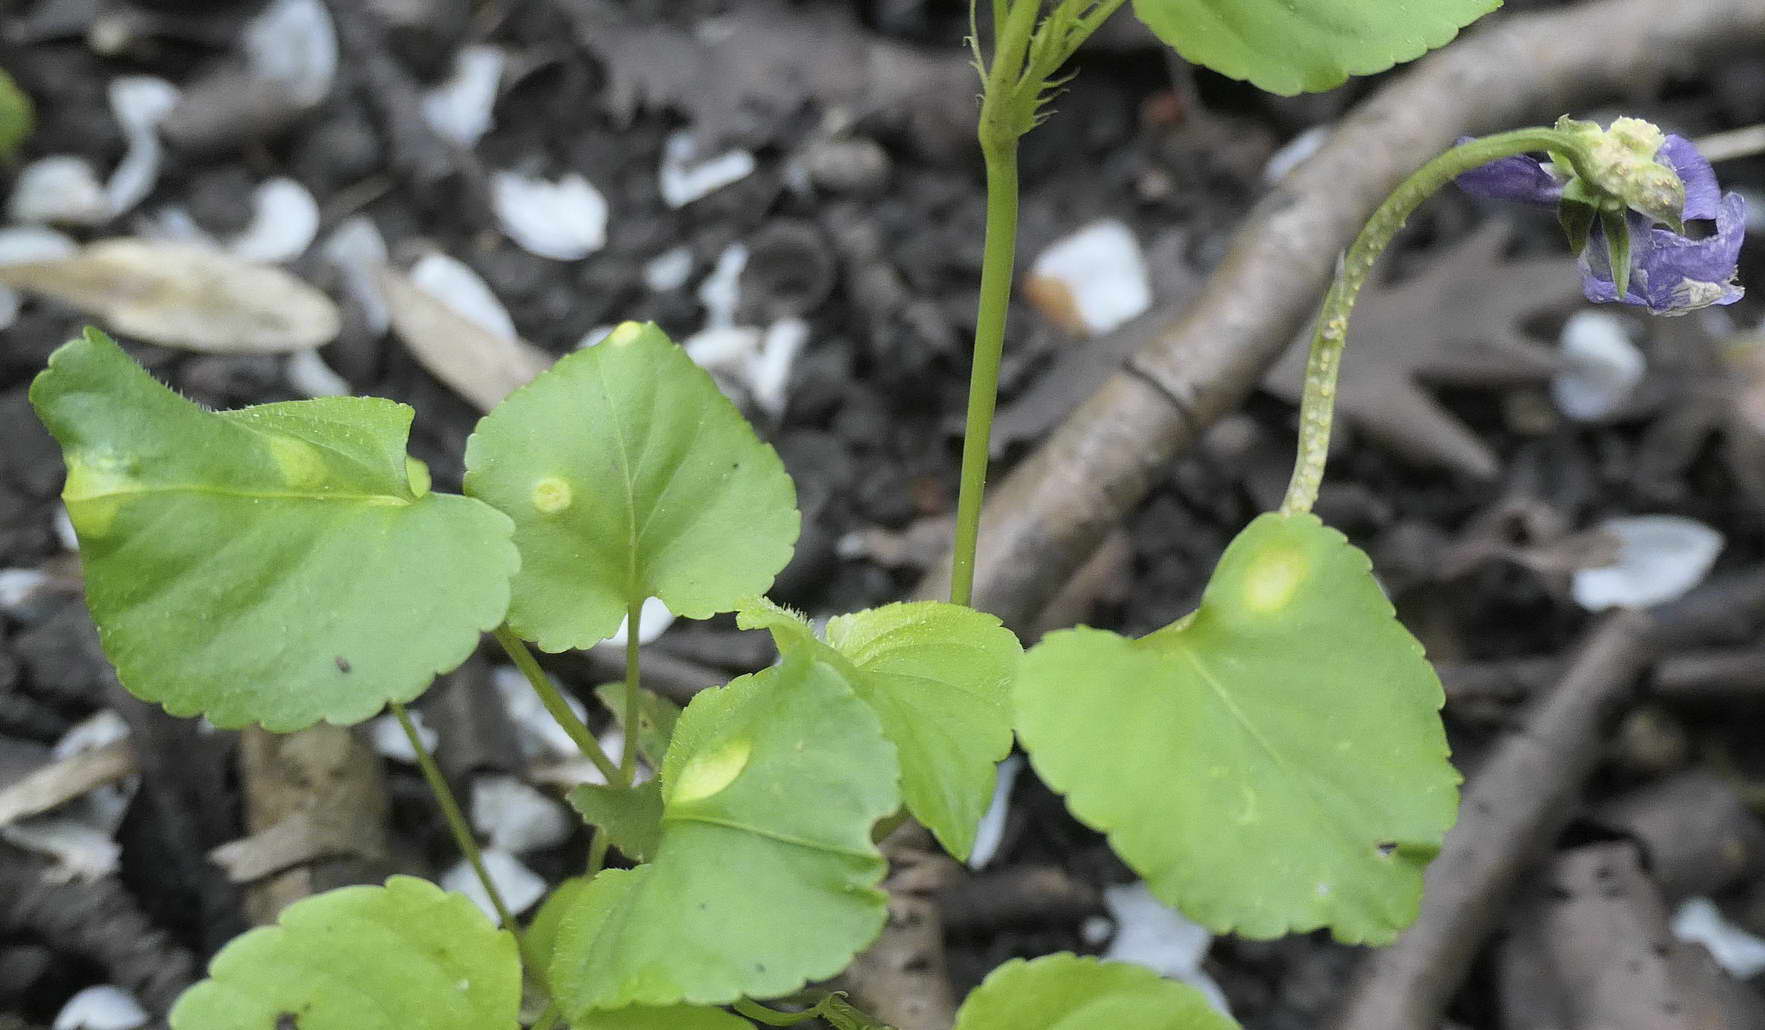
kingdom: Fungi
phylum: Basidiomycota
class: Pucciniomycetes
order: Pucciniales
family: Pucciniaceae
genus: Puccinia
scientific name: Puccinia violae
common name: viol-tvecellerust
